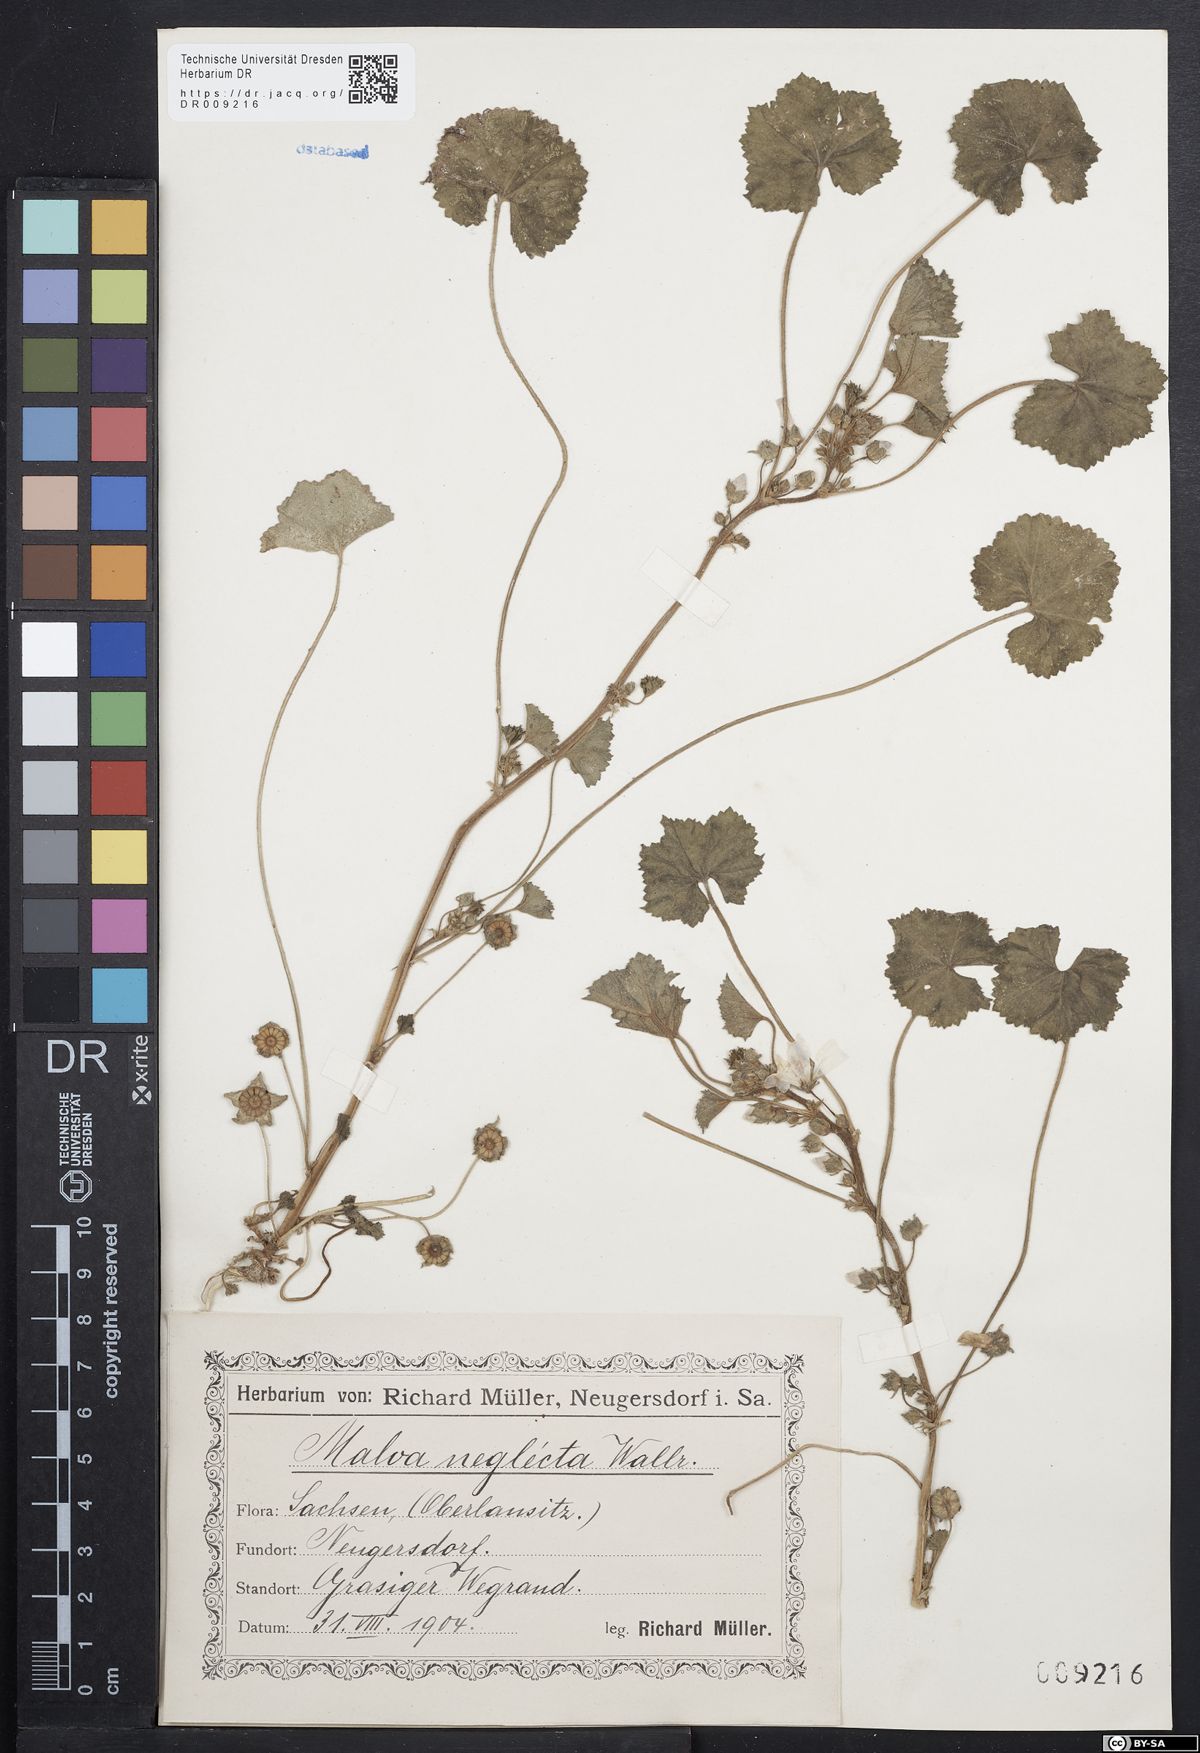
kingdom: Plantae
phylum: Tracheophyta
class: Magnoliopsida
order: Malvales
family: Malvaceae
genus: Malva
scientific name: Malva neglecta
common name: Common mallow
